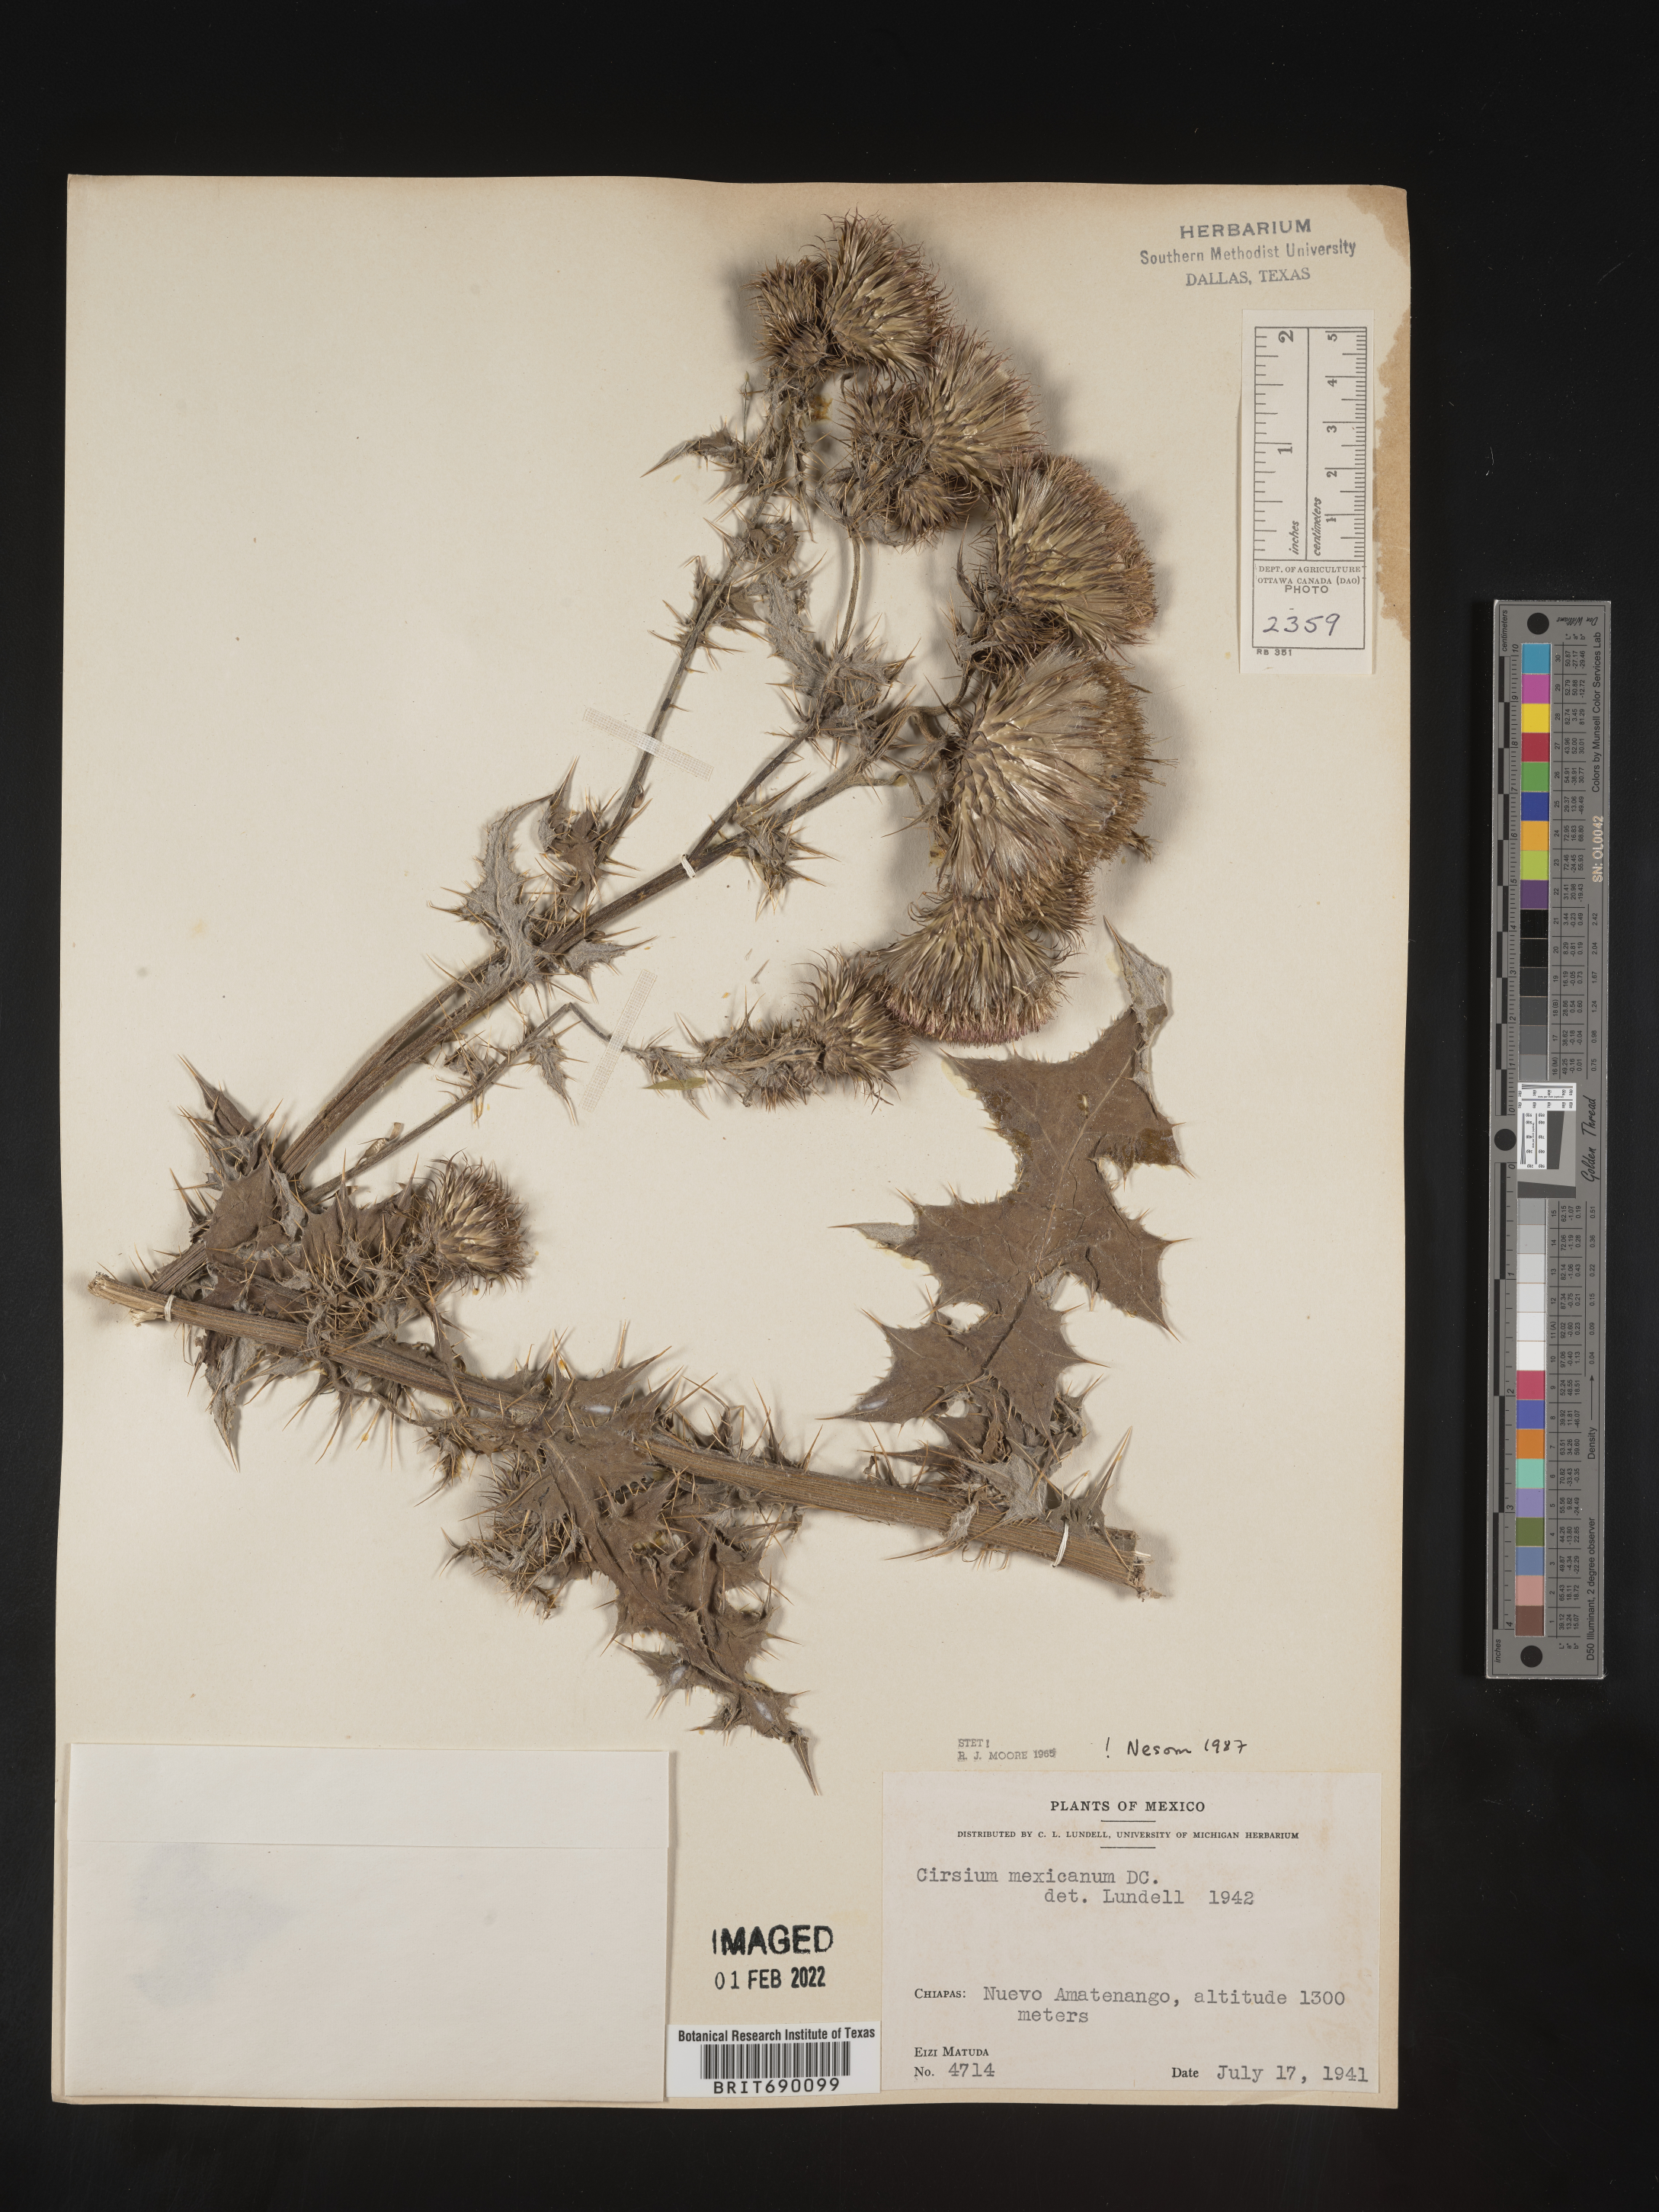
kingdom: Plantae
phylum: Tracheophyta
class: Magnoliopsida
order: Asterales
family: Asteraceae
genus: Cirsium
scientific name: Cirsium
